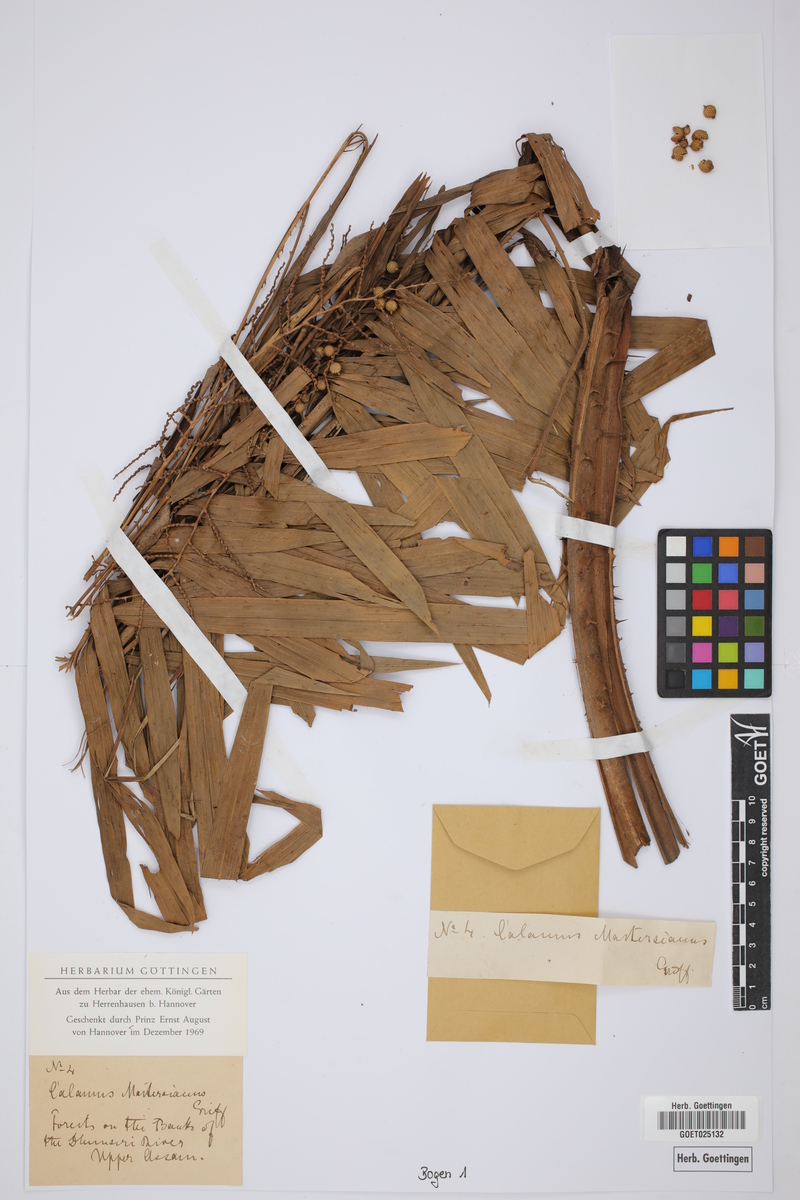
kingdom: Plantae
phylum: Tracheophyta
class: Liliopsida
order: Arecales
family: Arecaceae
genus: Calamus
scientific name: Calamus guruba
